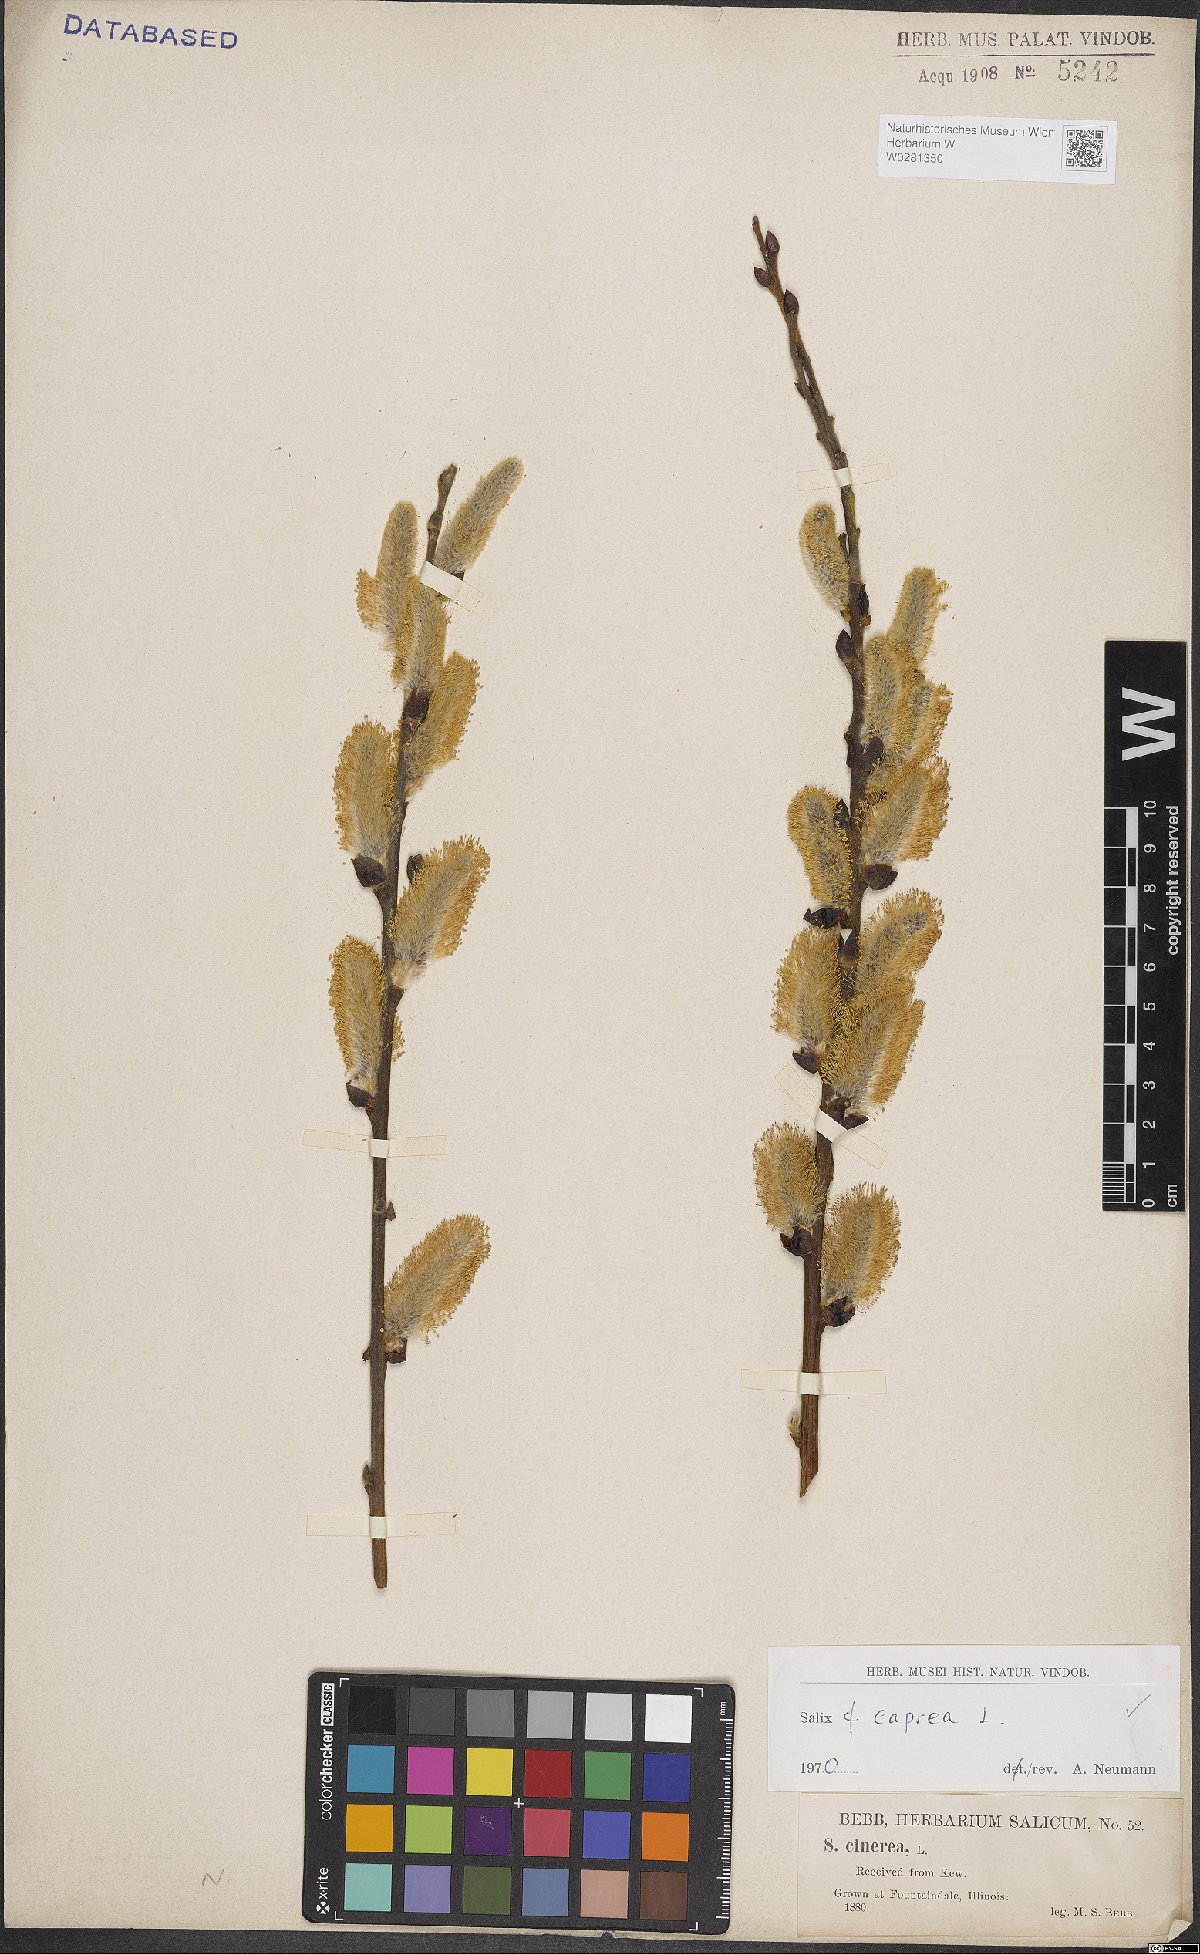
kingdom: Plantae
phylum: Tracheophyta
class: Magnoliopsida
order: Malpighiales
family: Salicaceae
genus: Salix
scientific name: Salix caprea
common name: Goat willow
